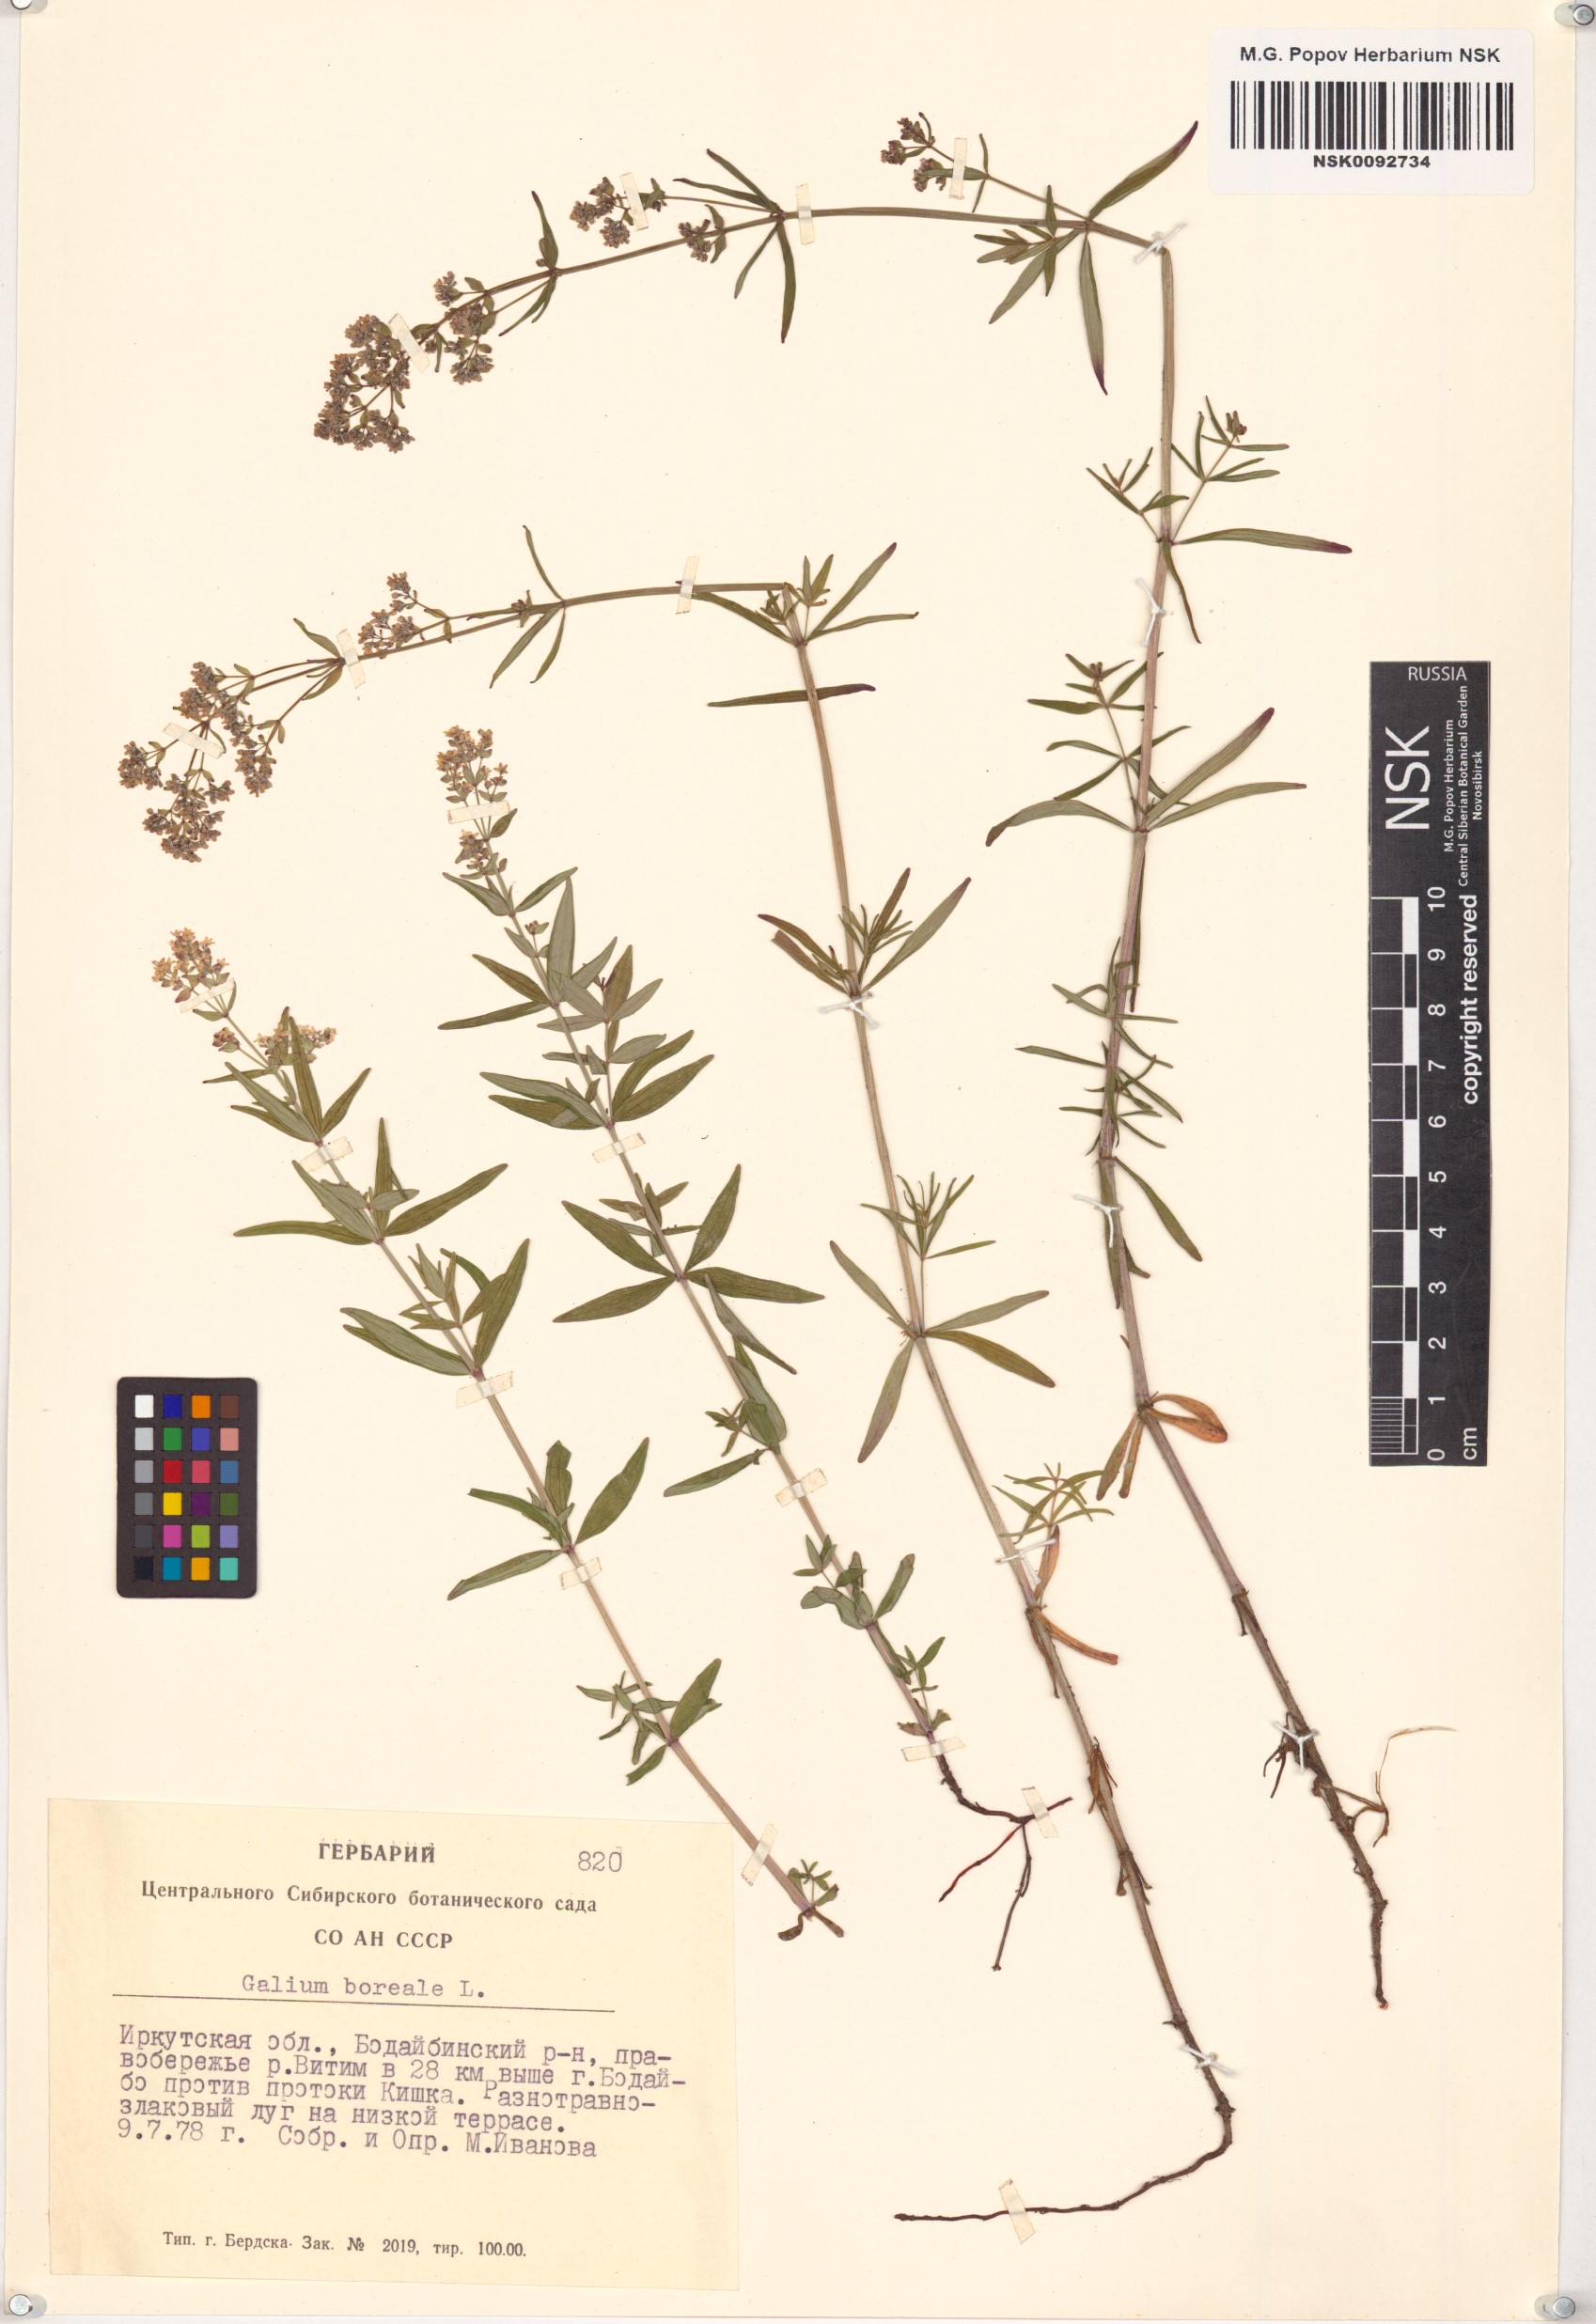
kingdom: Plantae
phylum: Tracheophyta
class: Magnoliopsida
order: Gentianales
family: Rubiaceae
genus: Galium
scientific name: Galium boreale
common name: Northern bedstraw
